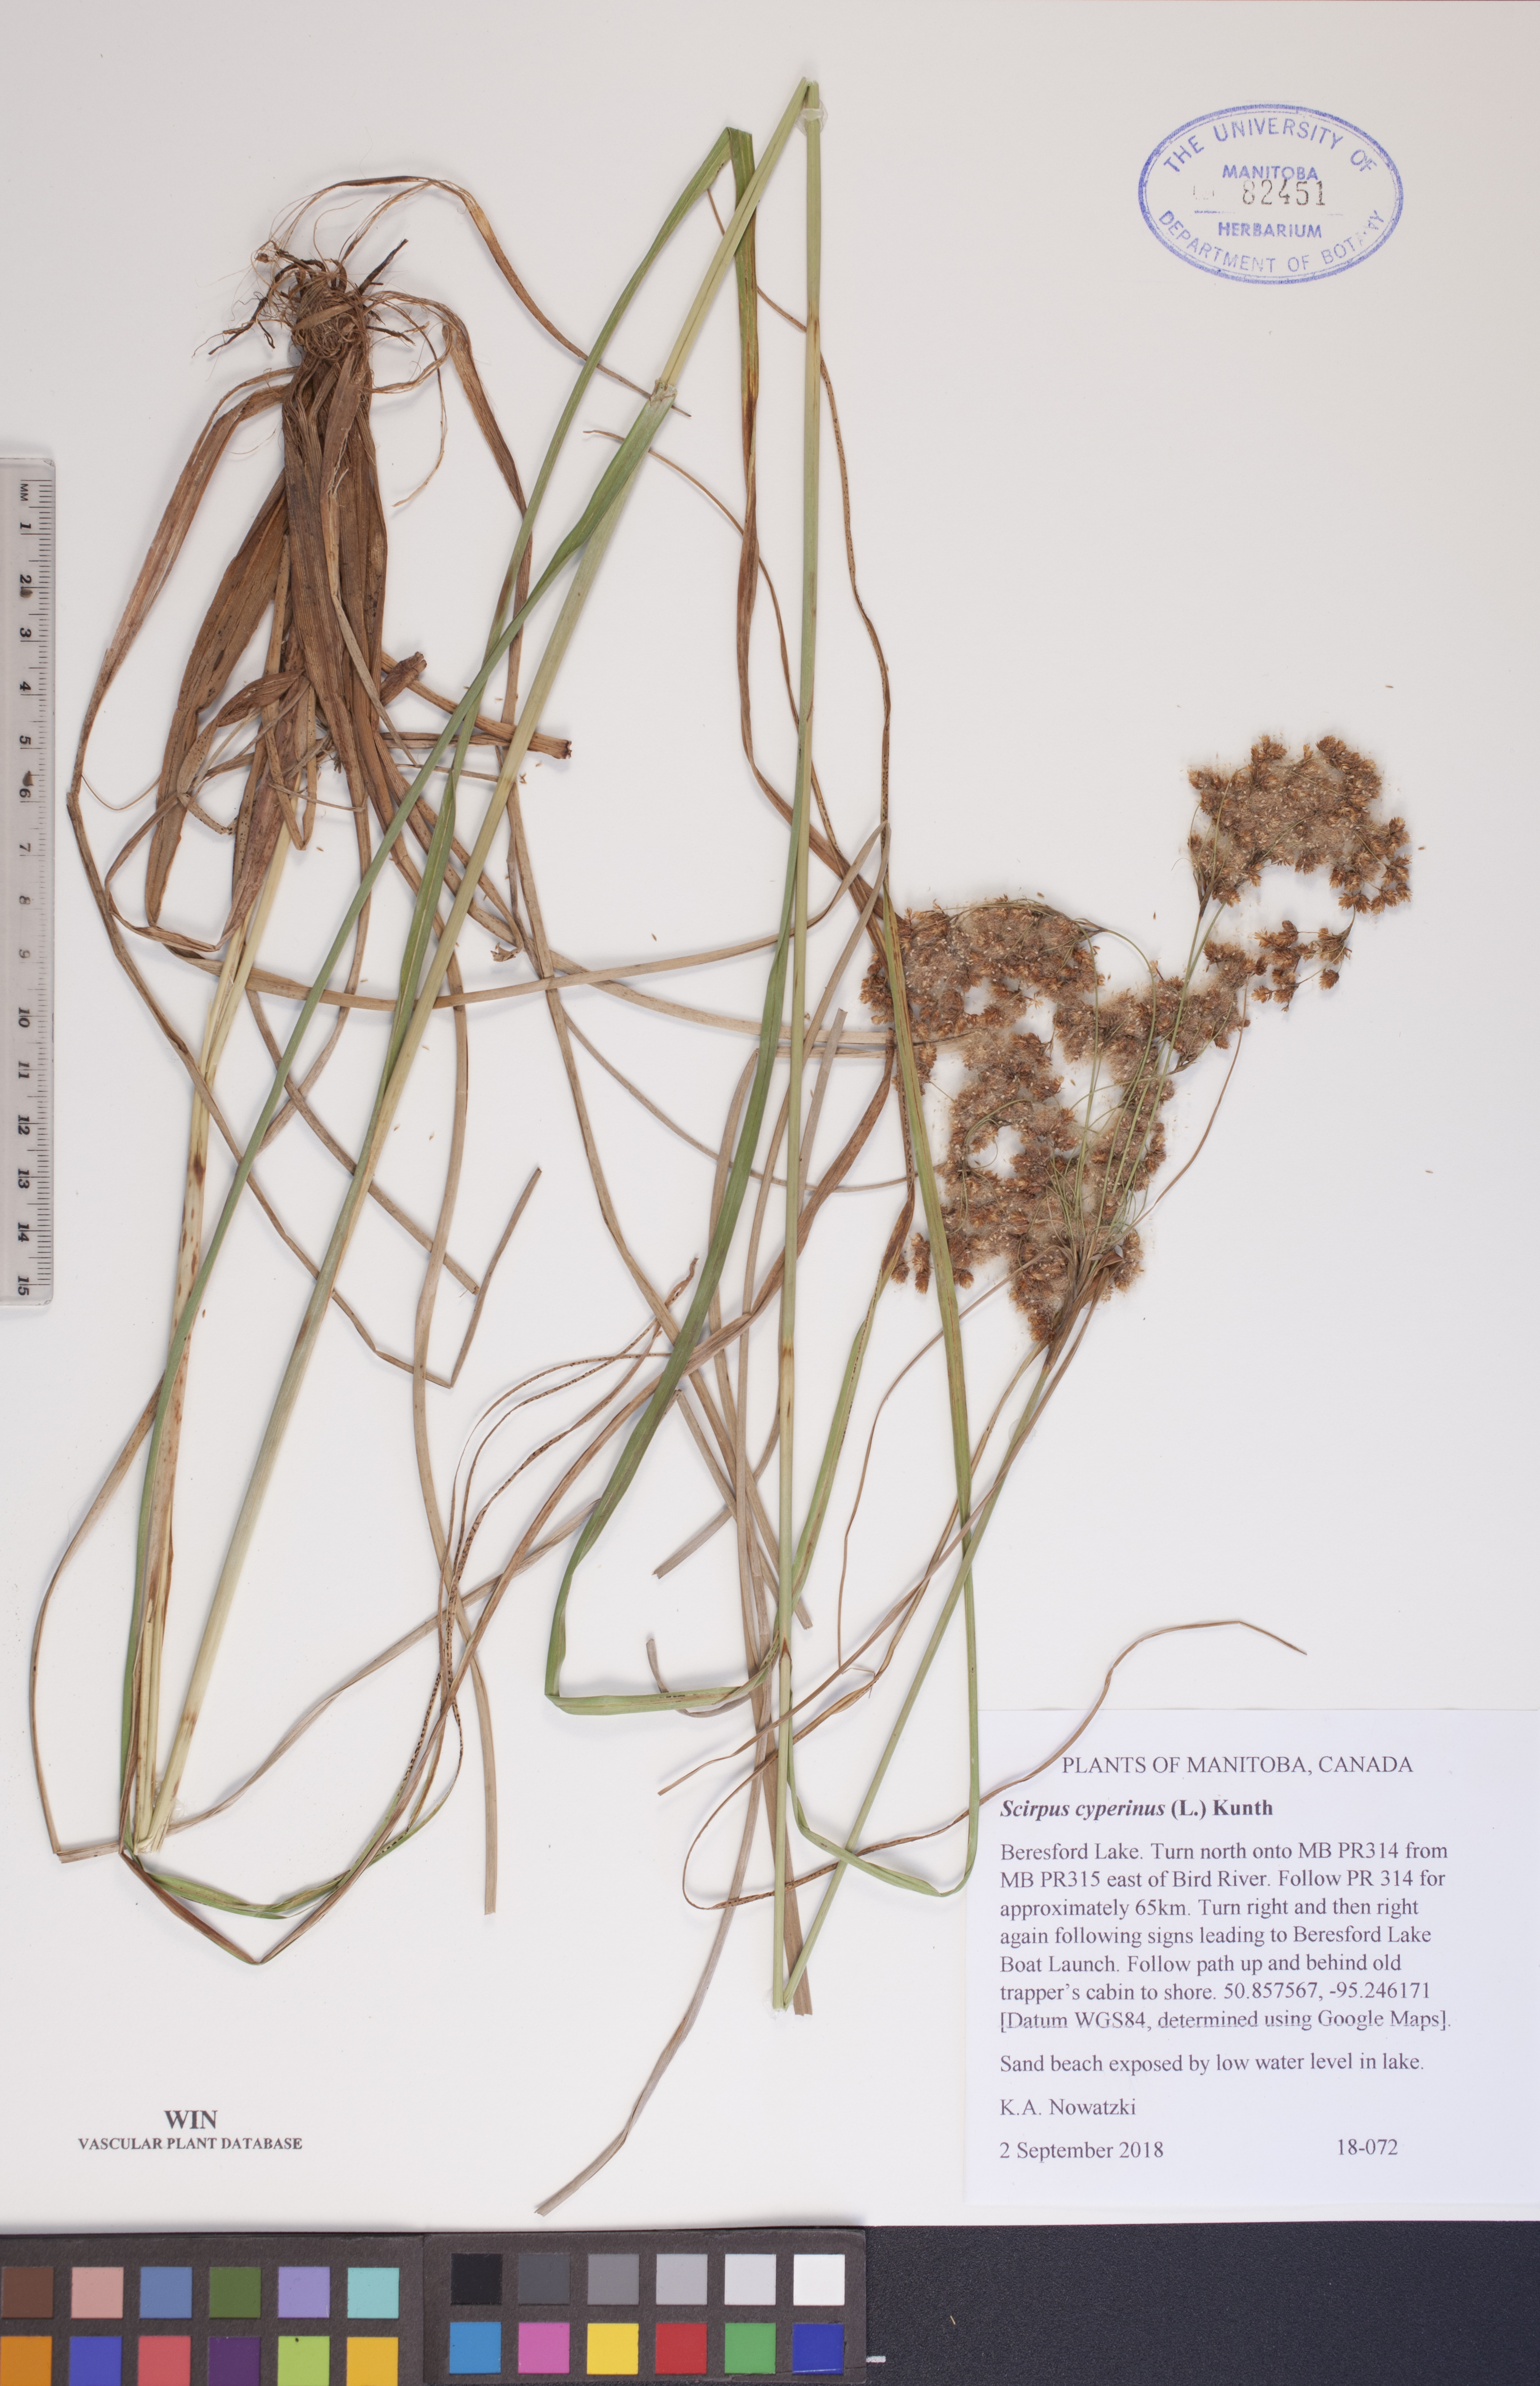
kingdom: Plantae
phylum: Tracheophyta
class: Liliopsida
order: Poales
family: Cyperaceae
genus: Scirpus
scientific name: Scirpus cyperinus
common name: Black-sheathed bulrush
